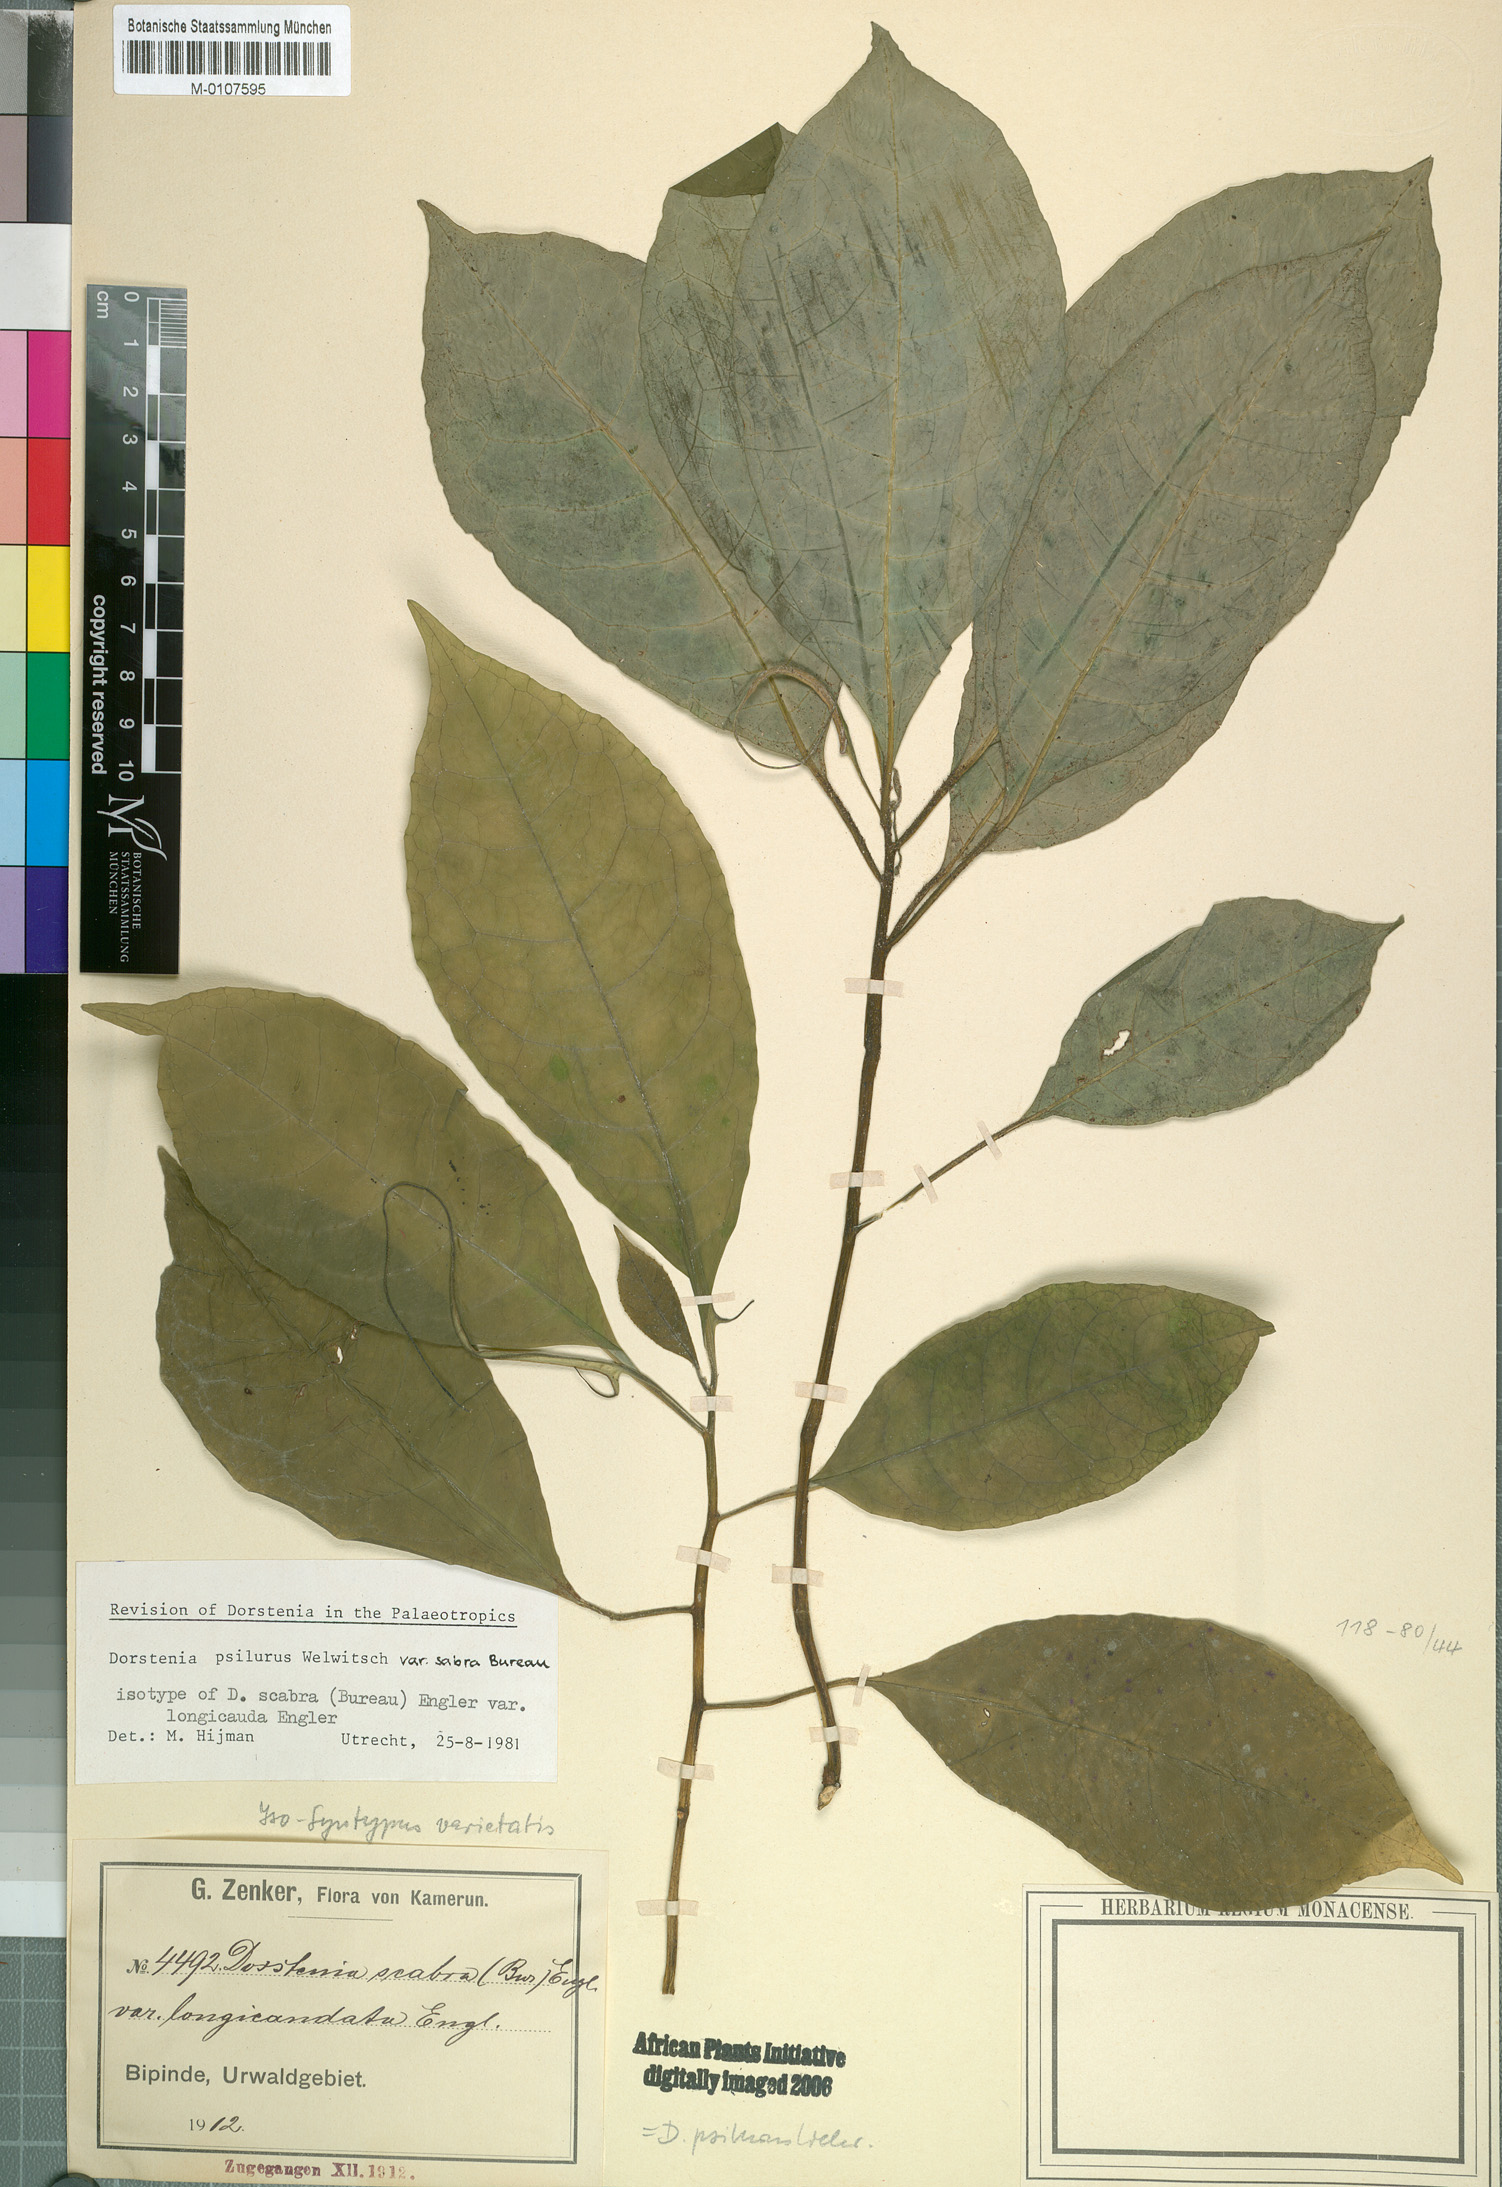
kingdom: Plantae
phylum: Tracheophyta
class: Magnoliopsida
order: Rosales
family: Moraceae
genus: Dorstenia
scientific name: Dorstenia psilurus
